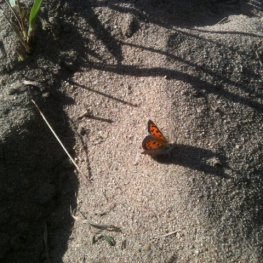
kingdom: Animalia
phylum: Arthropoda
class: Insecta
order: Lepidoptera
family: Lycaenidae
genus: Lycaena
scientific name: Lycaena phlaeas
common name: American Copper
